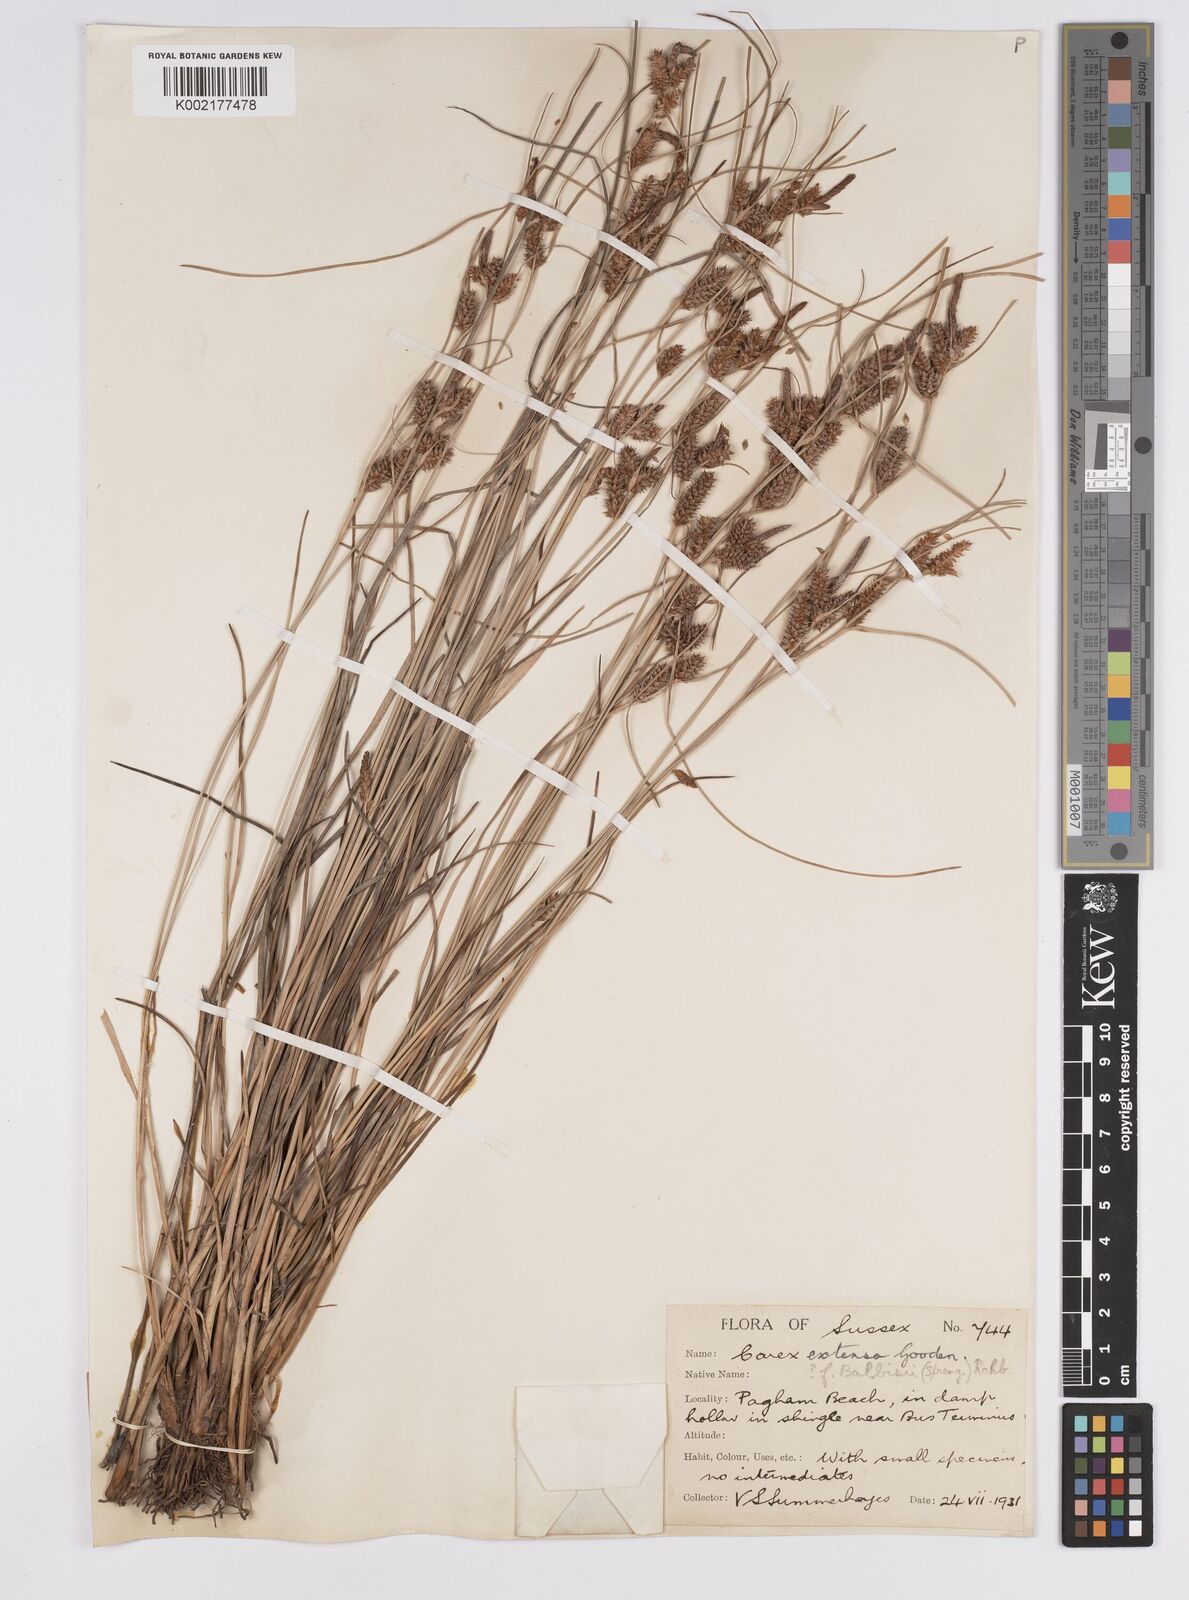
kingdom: Plantae
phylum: Tracheophyta
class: Liliopsida
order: Poales
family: Cyperaceae
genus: Carex
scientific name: Carex extensa
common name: Long-bracted sedge
